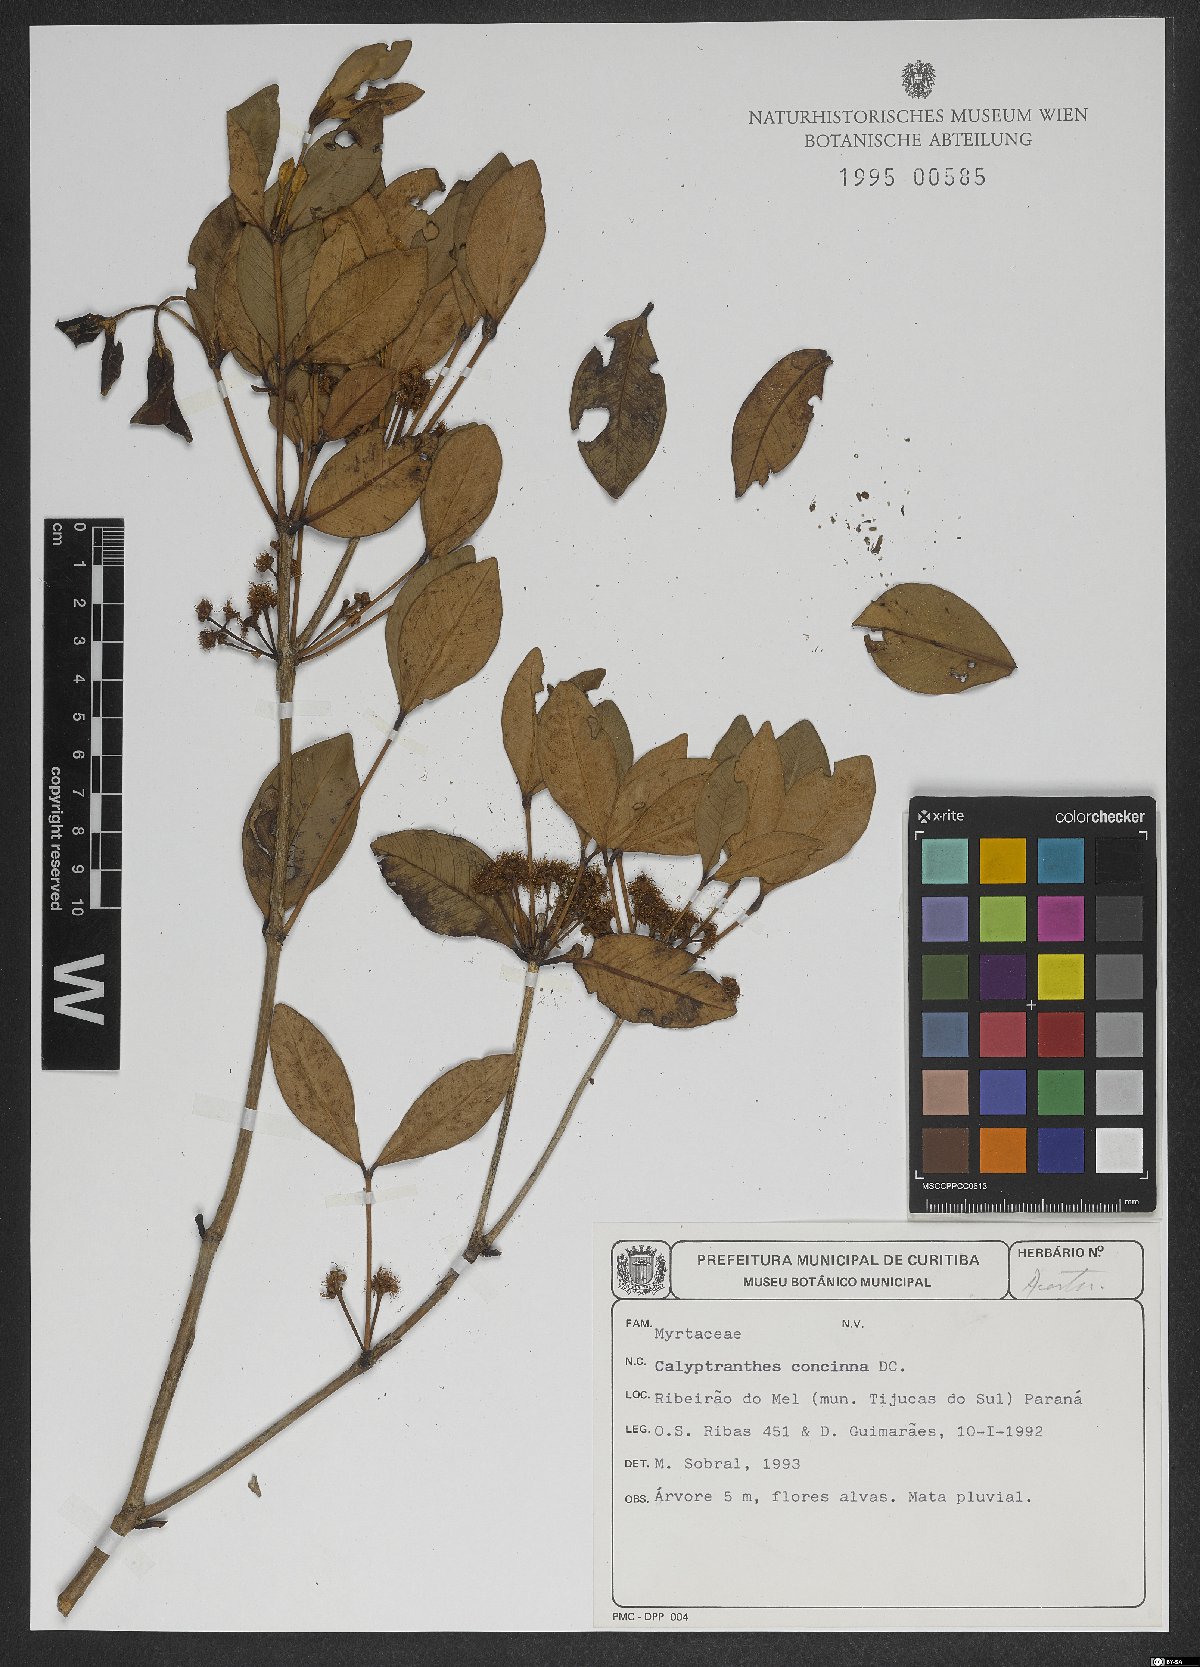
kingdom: Plantae
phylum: Tracheophyta
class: Magnoliopsida
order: Myrtales
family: Myrtaceae
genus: Myrcia
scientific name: Myrcia cruciflora
